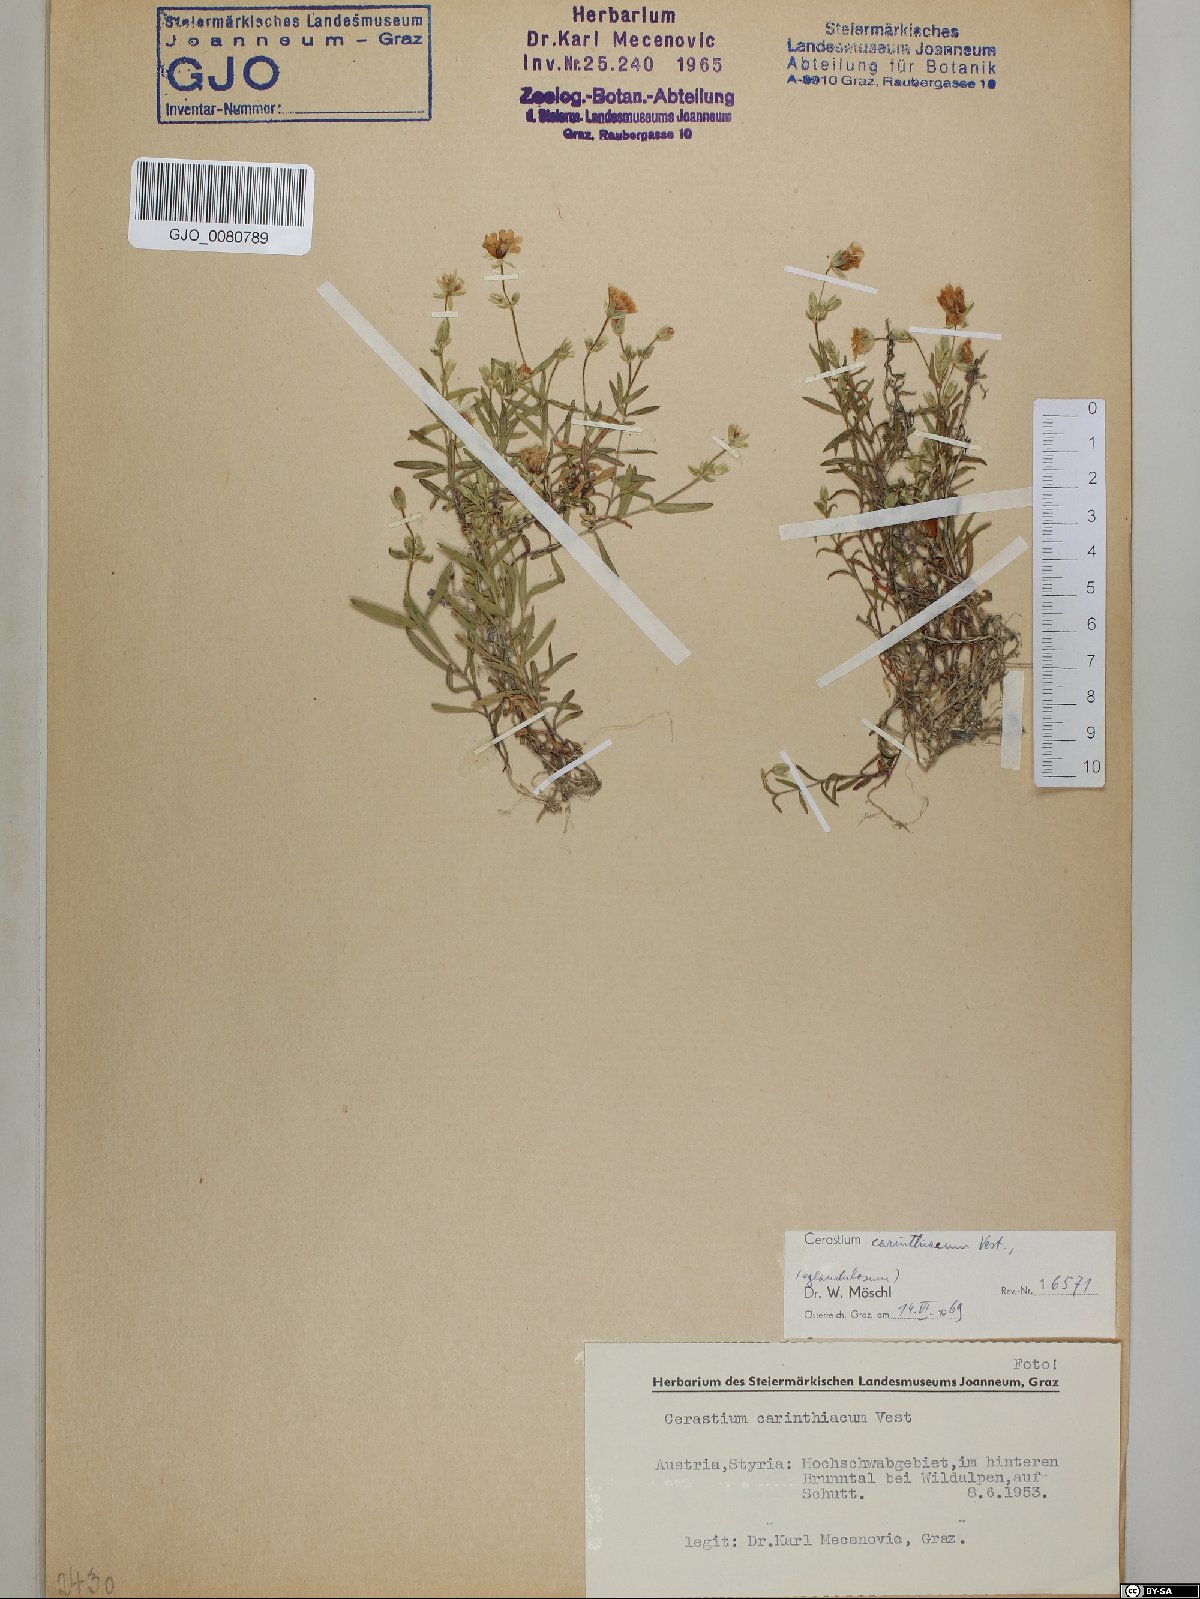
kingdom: Plantae
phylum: Tracheophyta
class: Magnoliopsida
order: Caryophyllales
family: Caryophyllaceae
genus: Cerastium
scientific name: Cerastium carinthiacum
